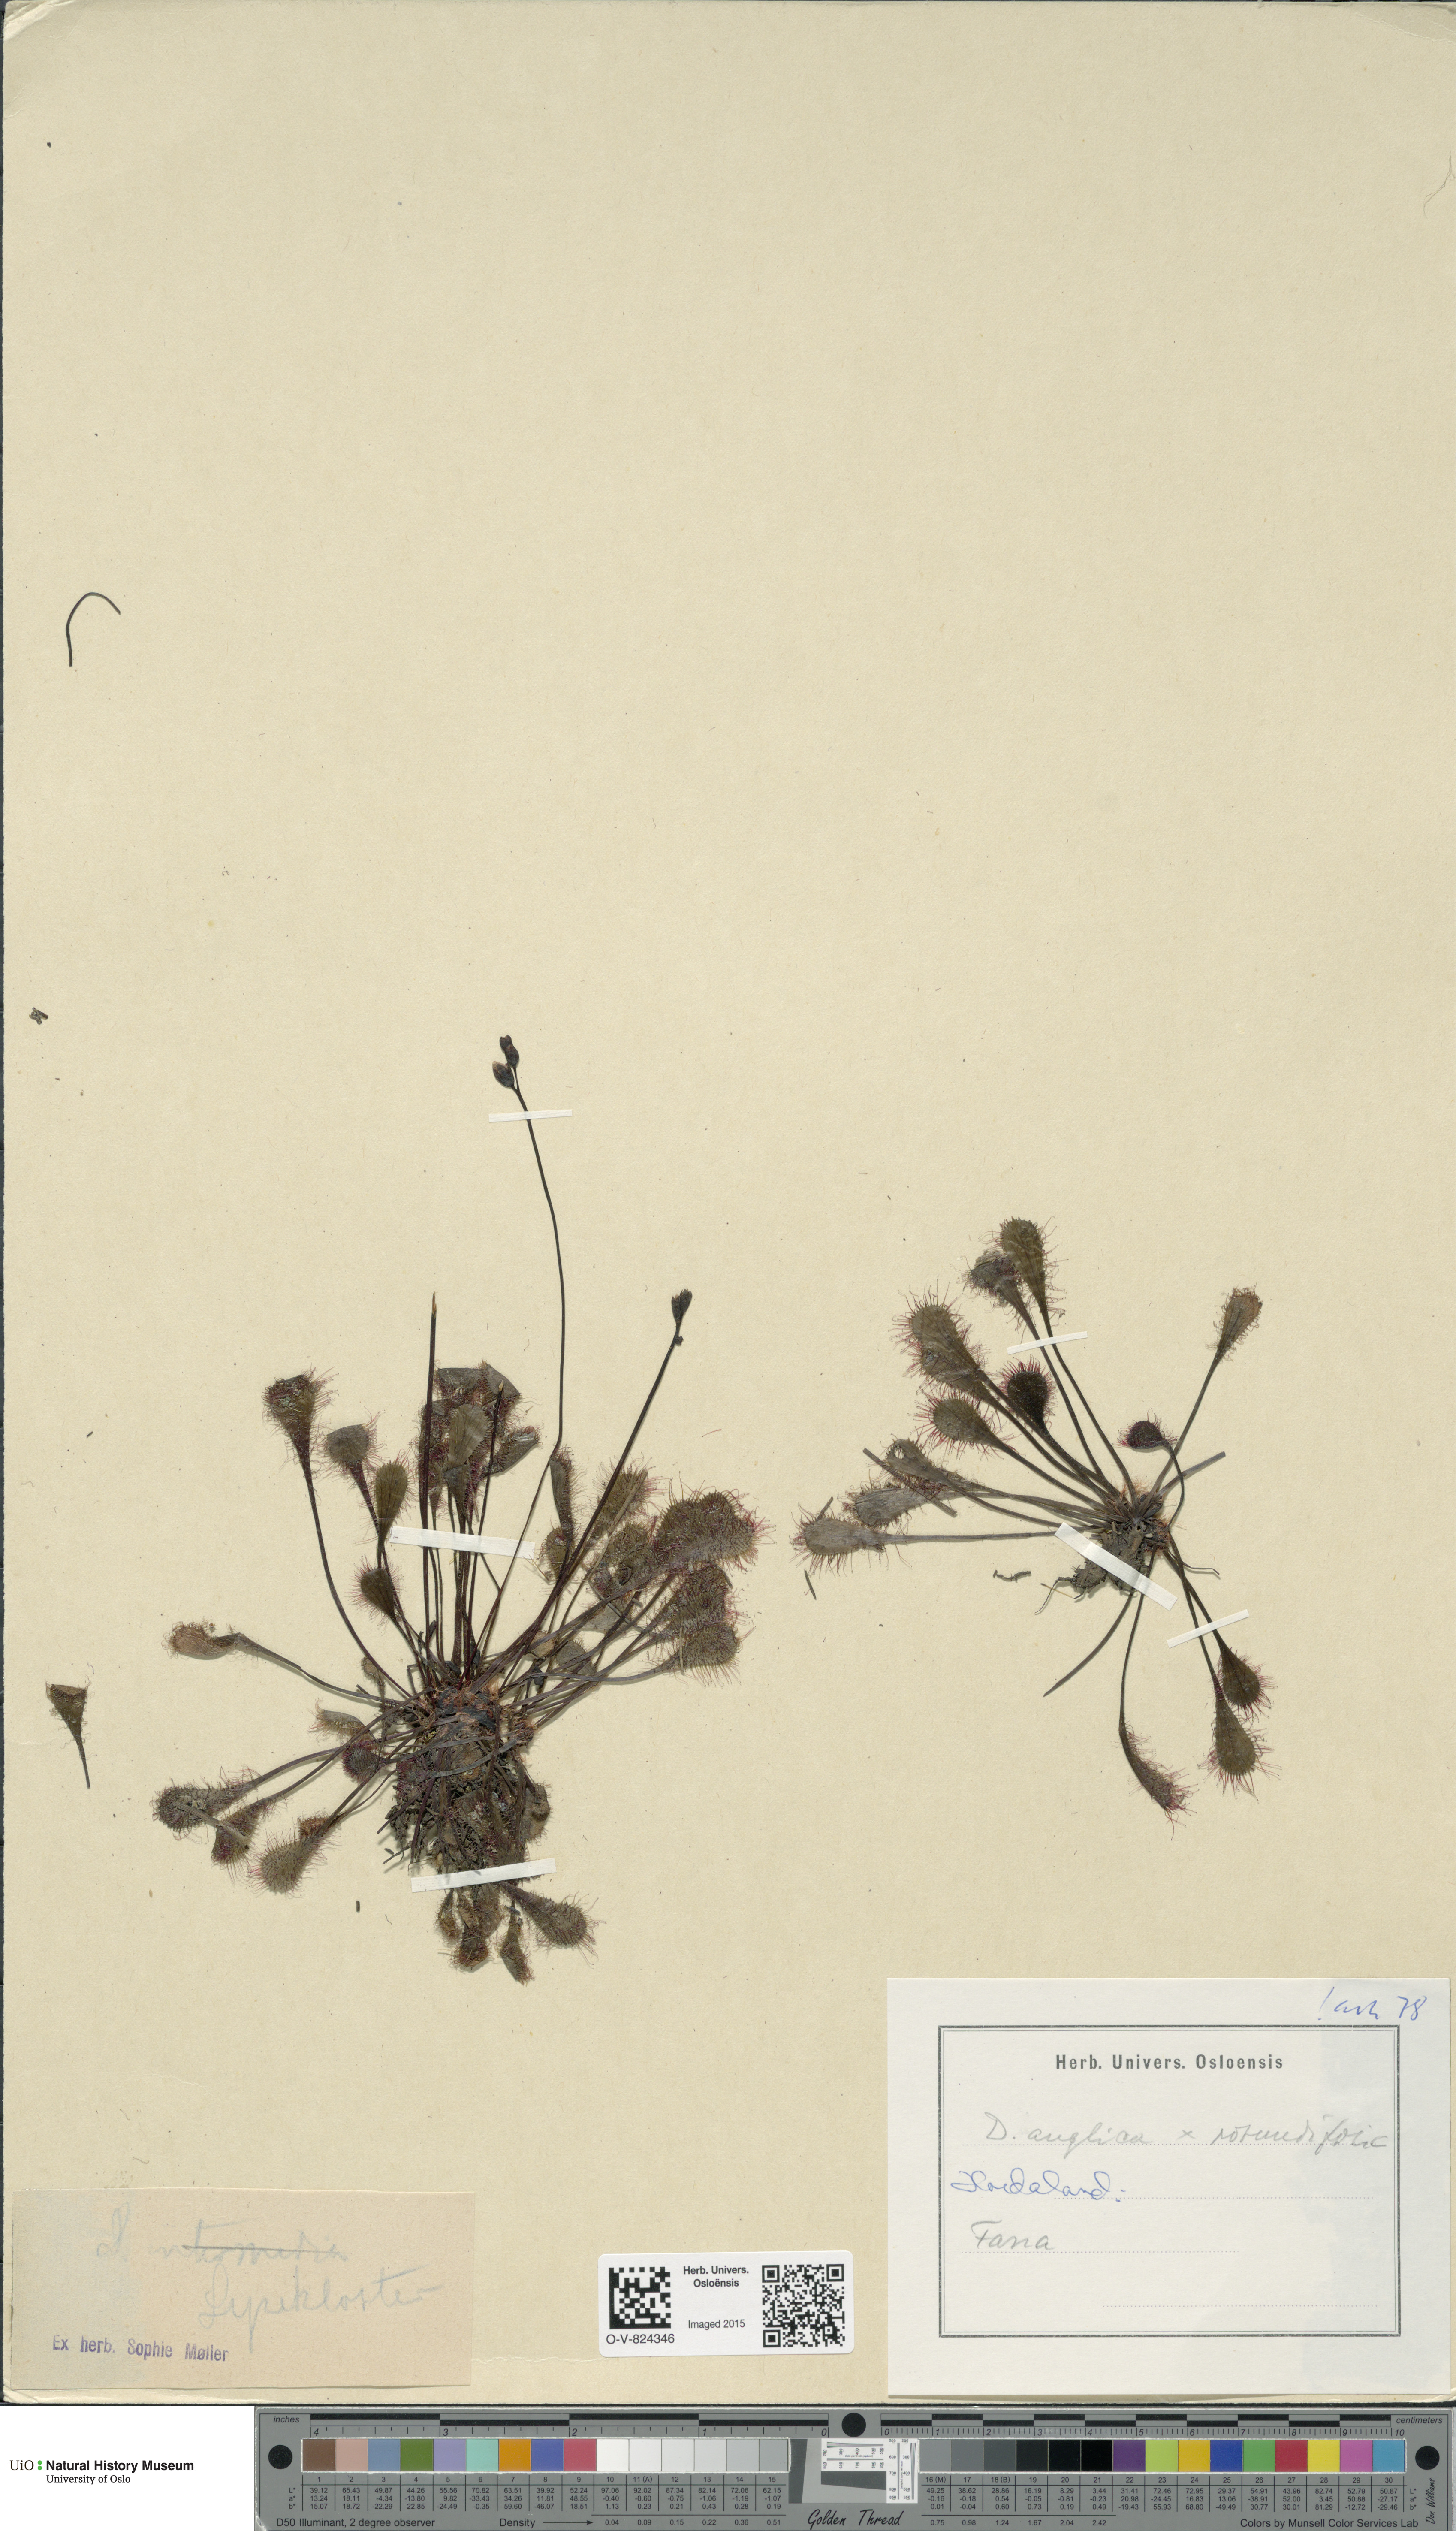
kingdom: Plantae
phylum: Tracheophyta
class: Magnoliopsida
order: Caryophyllales
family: Droseraceae
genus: Drosera
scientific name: Drosera
